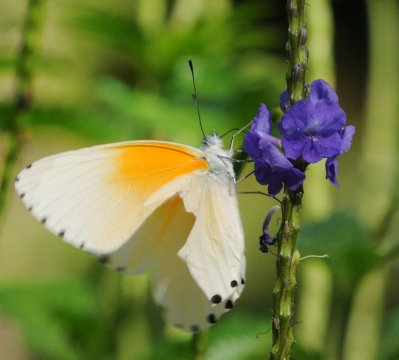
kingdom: Animalia
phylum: Arthropoda
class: Insecta
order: Lepidoptera
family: Pieridae
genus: Mylothris
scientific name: Mylothris rueppellii
